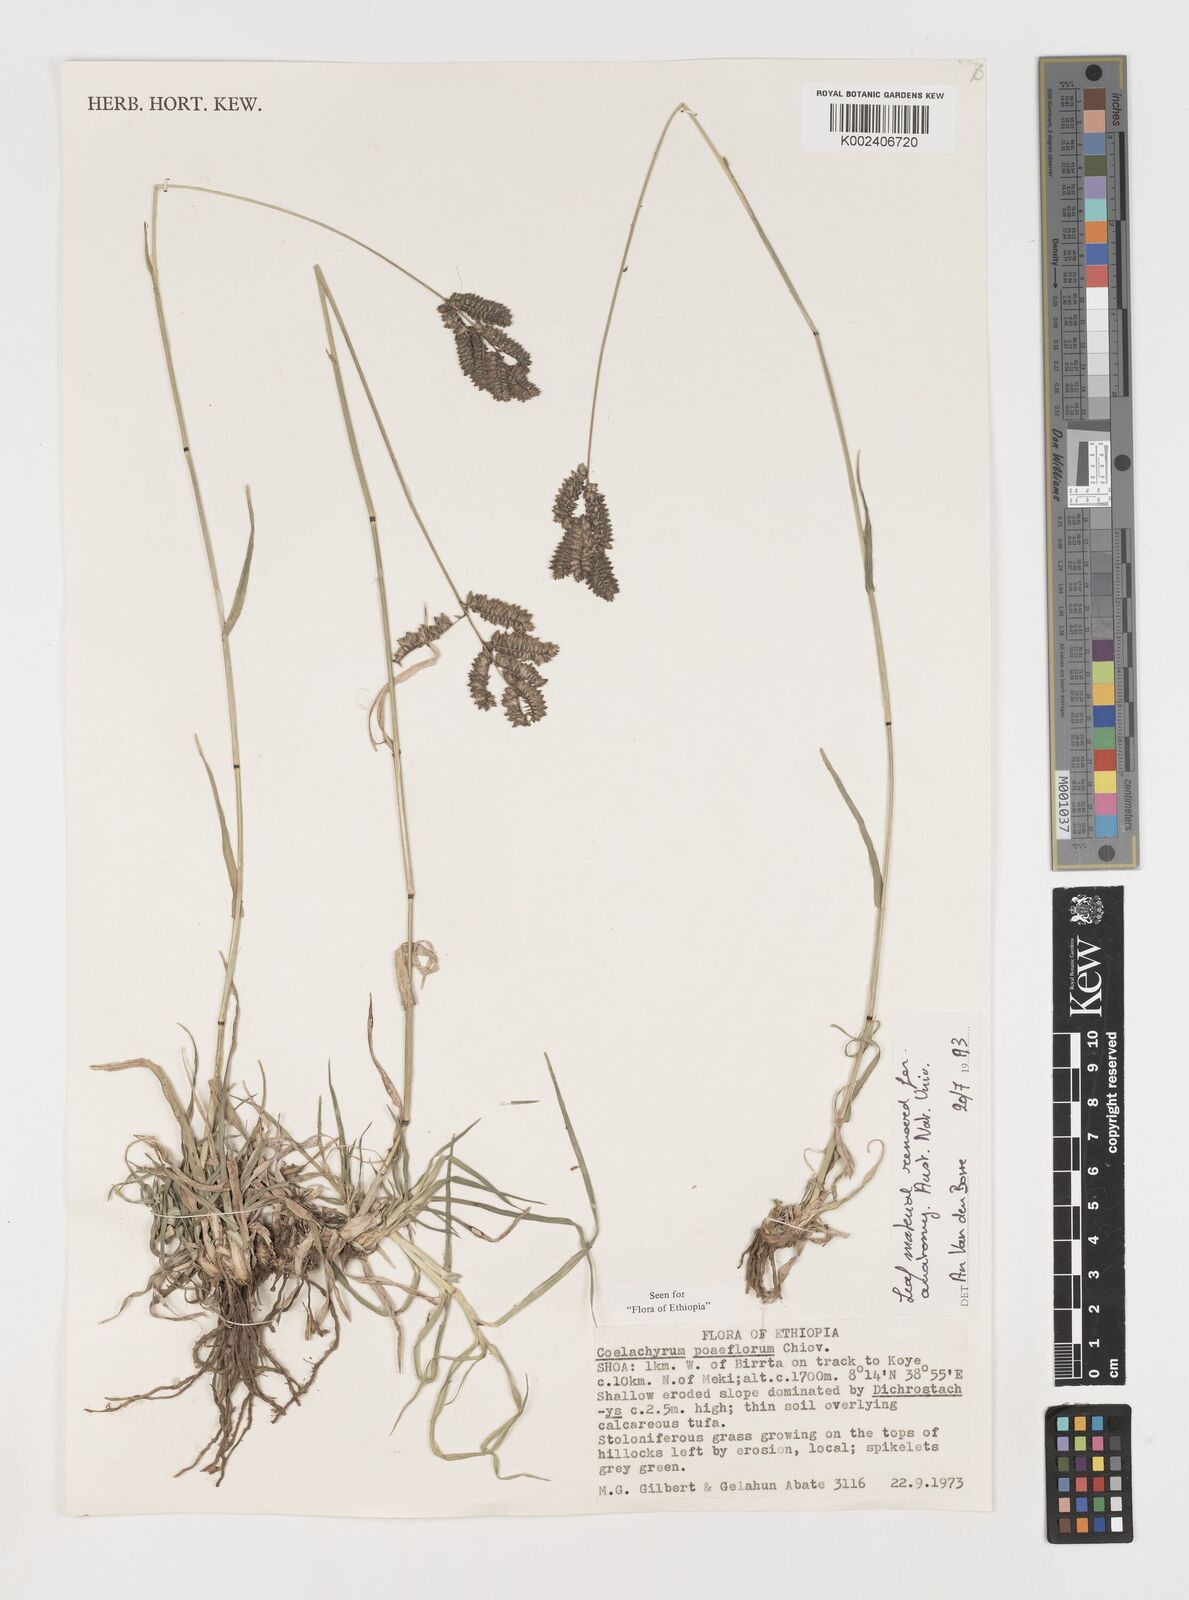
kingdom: Plantae
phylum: Tracheophyta
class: Liliopsida
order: Poales
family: Poaceae
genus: Coelachyrum
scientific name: Coelachyrum poiflorum
